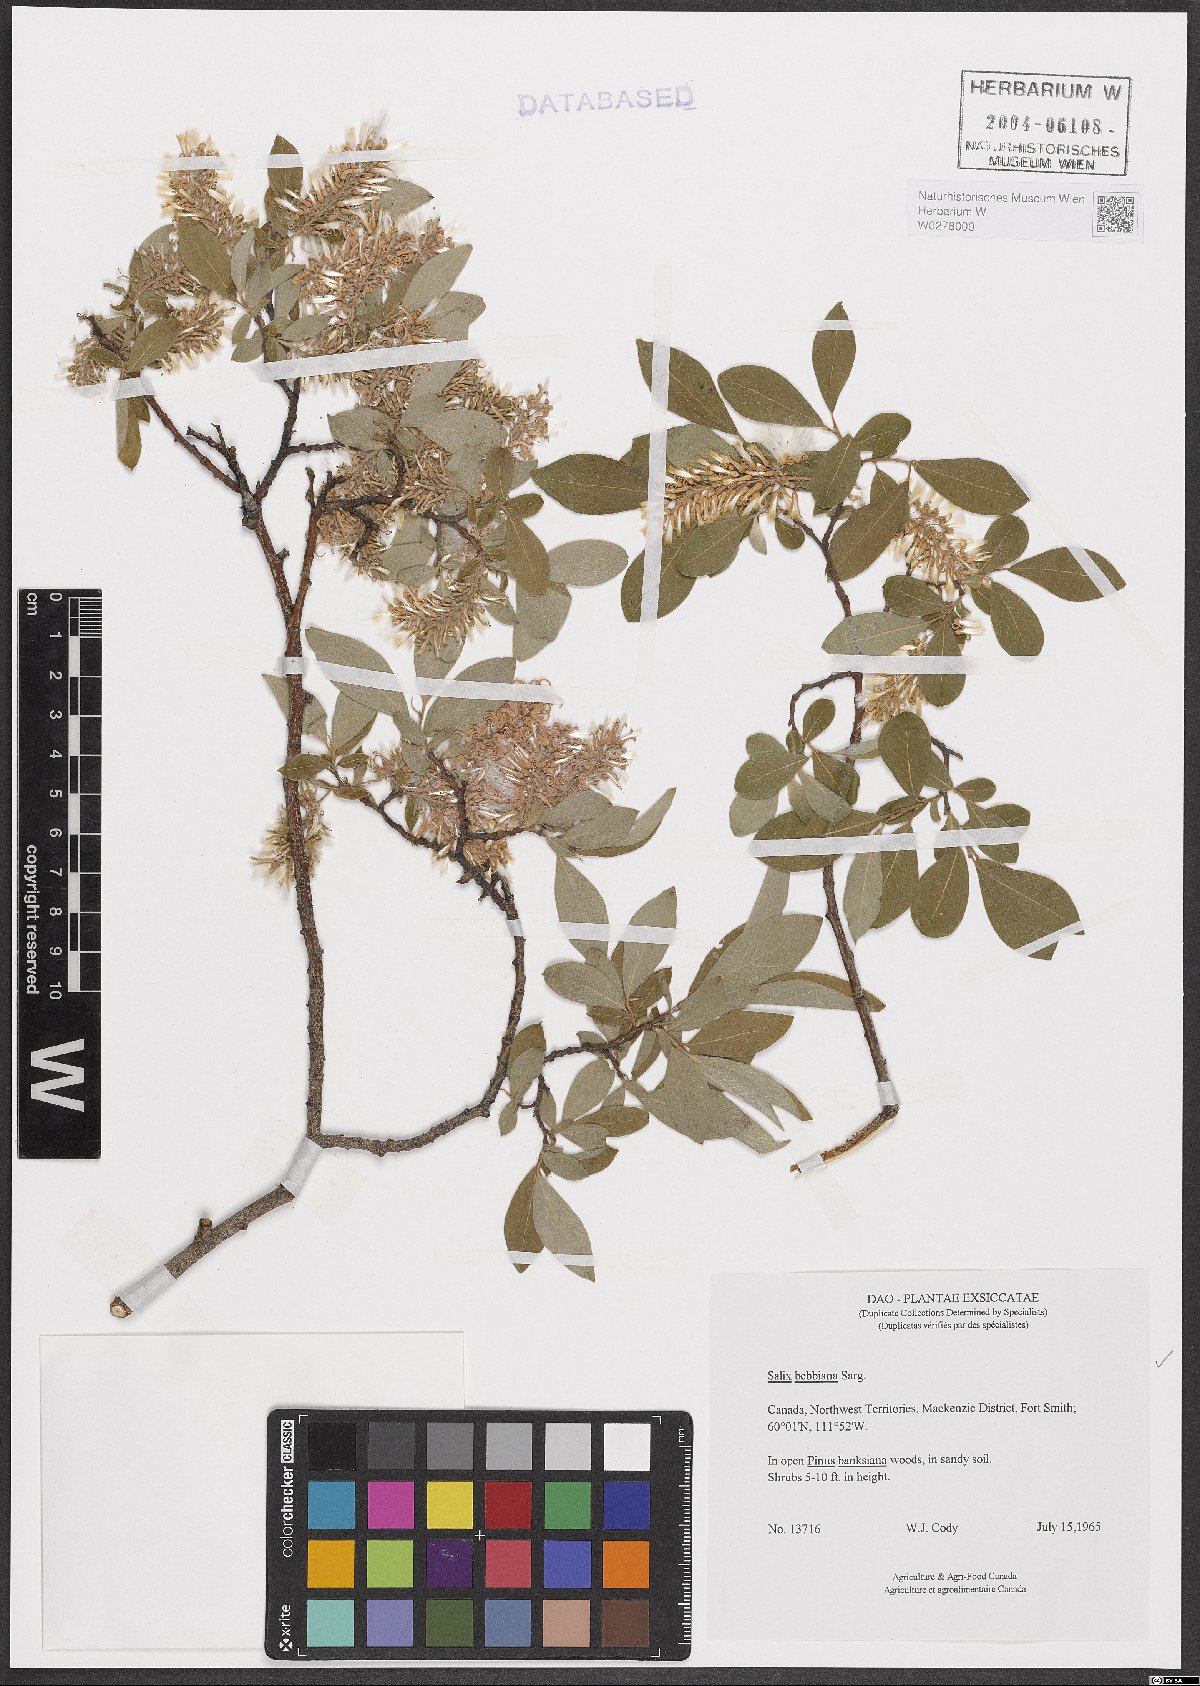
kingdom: Plantae
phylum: Tracheophyta
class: Magnoliopsida
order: Malpighiales
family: Salicaceae
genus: Salix
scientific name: Salix bebbiana
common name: Bebb's willow
